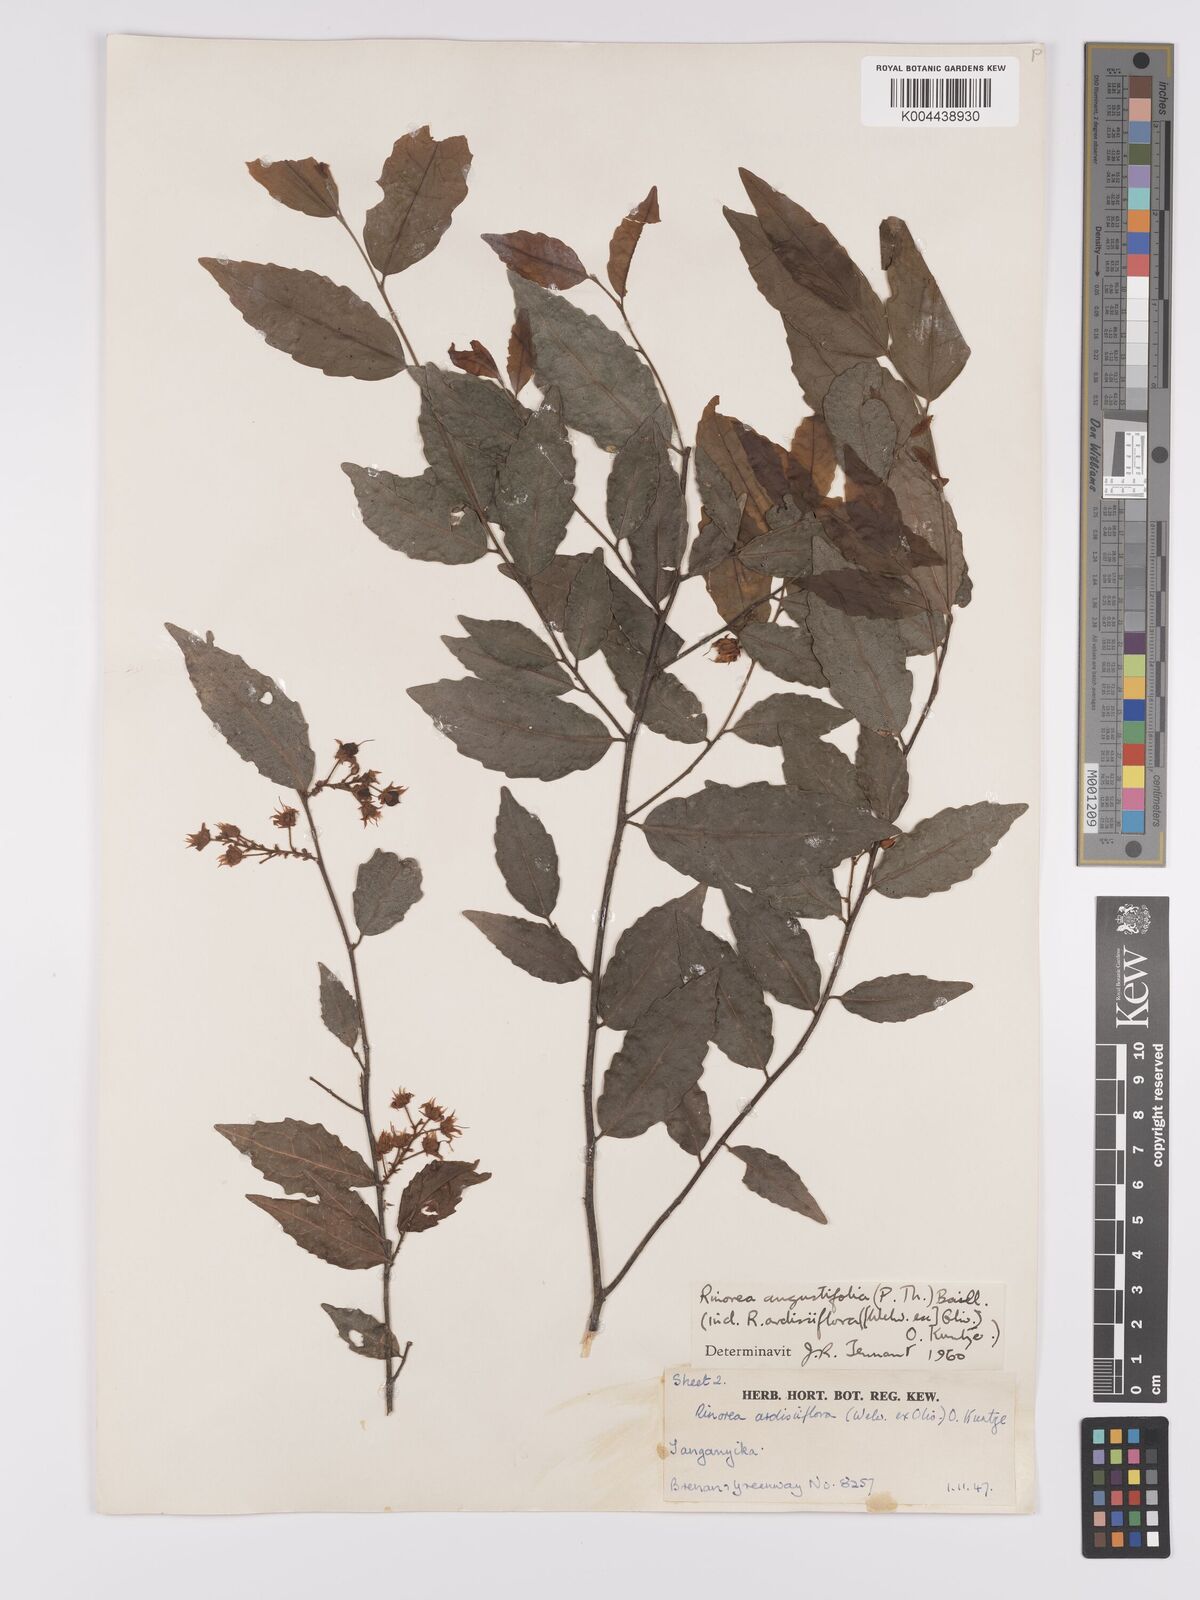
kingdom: Plantae
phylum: Tracheophyta
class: Magnoliopsida
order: Malpighiales
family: Violaceae
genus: Rinorea
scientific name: Rinorea angustifolia
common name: White violet-bush
